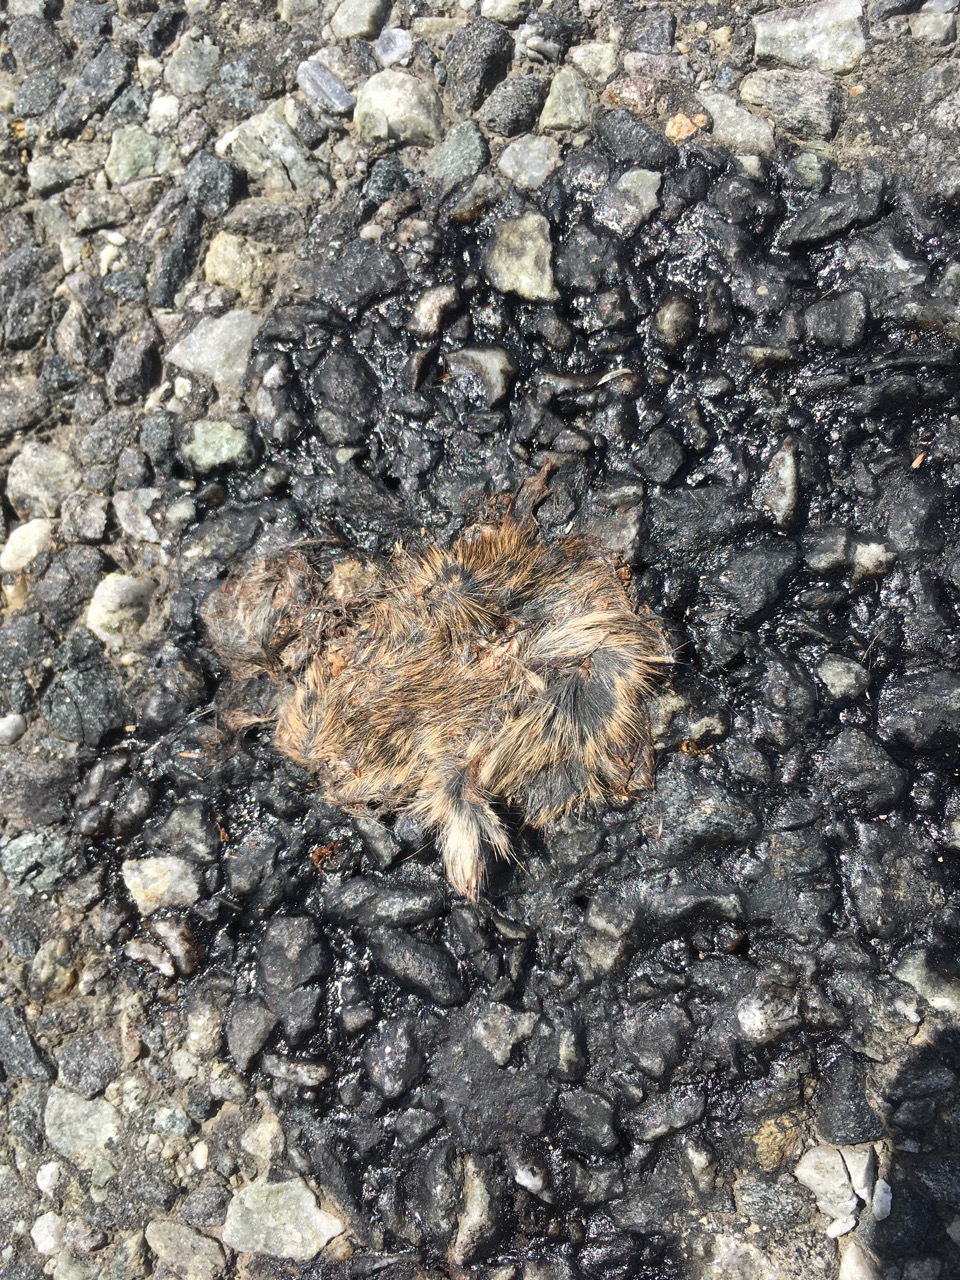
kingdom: Animalia
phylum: Chordata
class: Mammalia
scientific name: Mammalia
